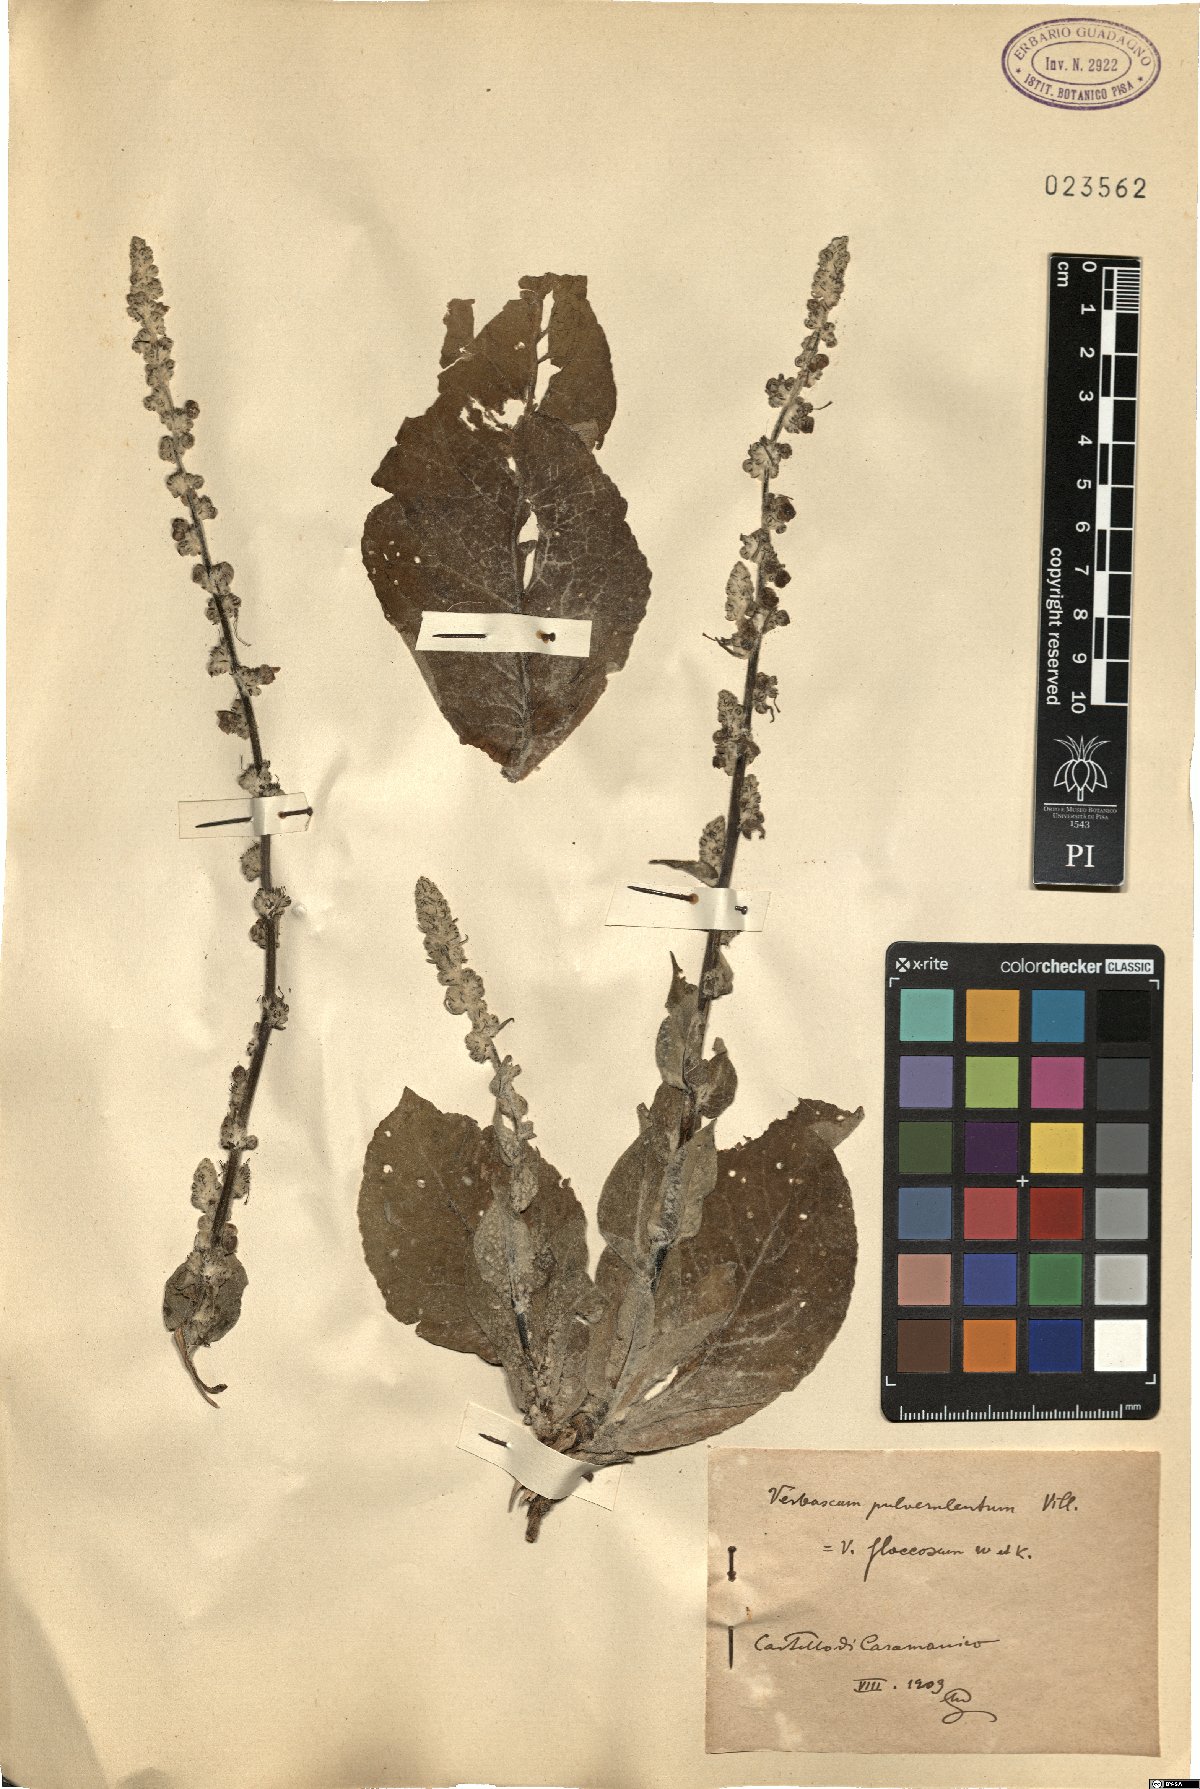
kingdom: Plantae
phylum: Tracheophyta
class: Magnoliopsida
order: Lamiales
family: Scrophulariaceae
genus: Verbascum
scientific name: Verbascum pulverulentum
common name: Broad-leaf mullein
